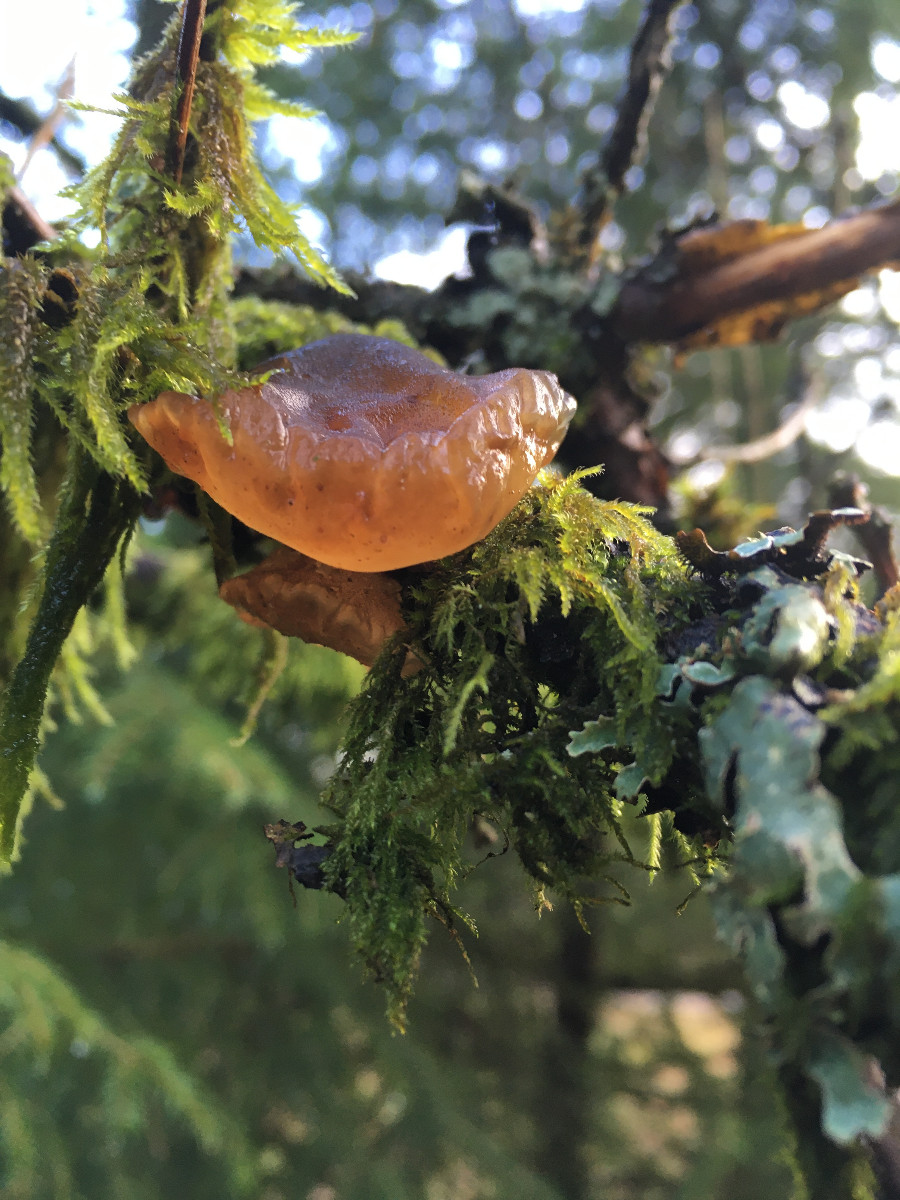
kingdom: Fungi
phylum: Basidiomycota
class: Agaricomycetes
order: Auriculariales
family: Auriculariaceae
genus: Exidia
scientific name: Exidia recisa
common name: pile-bævretop
